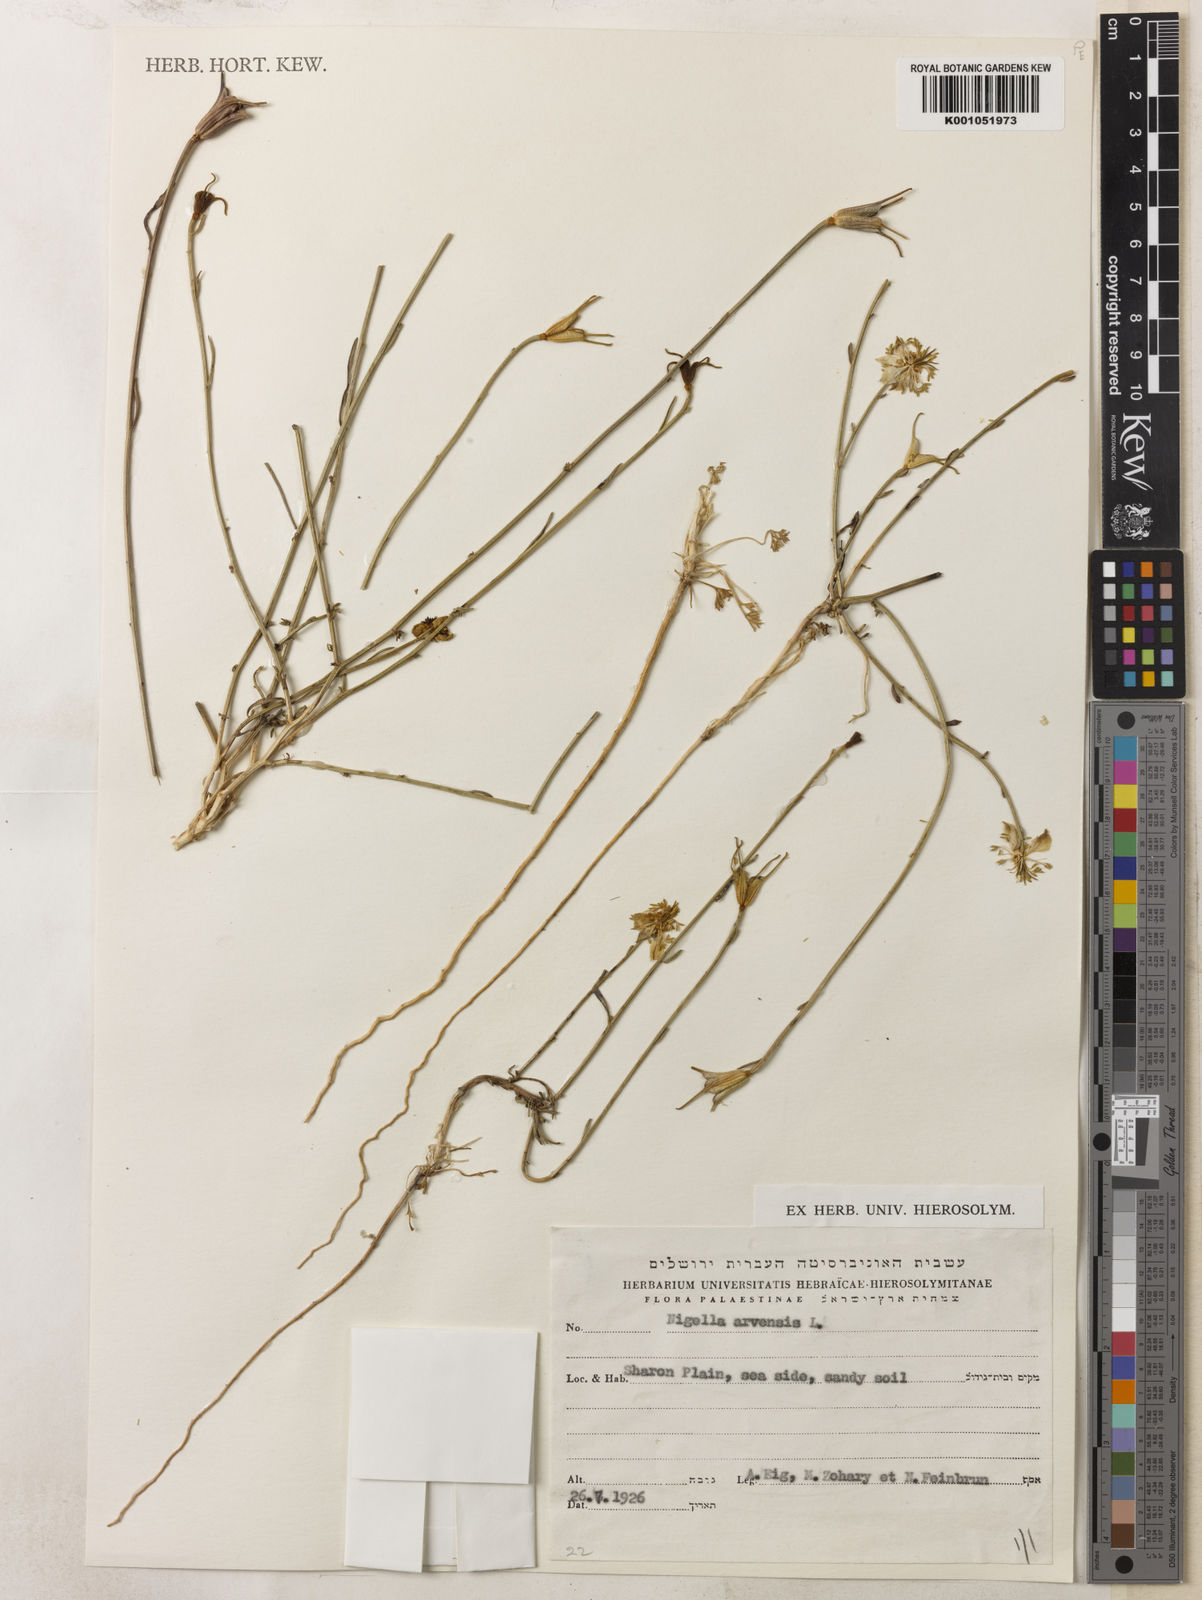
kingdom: Plantae
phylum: Tracheophyta
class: Magnoliopsida
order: Ranunculales
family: Ranunculaceae
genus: Nigella
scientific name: Nigella arvensis
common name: Wild fennel-flower
